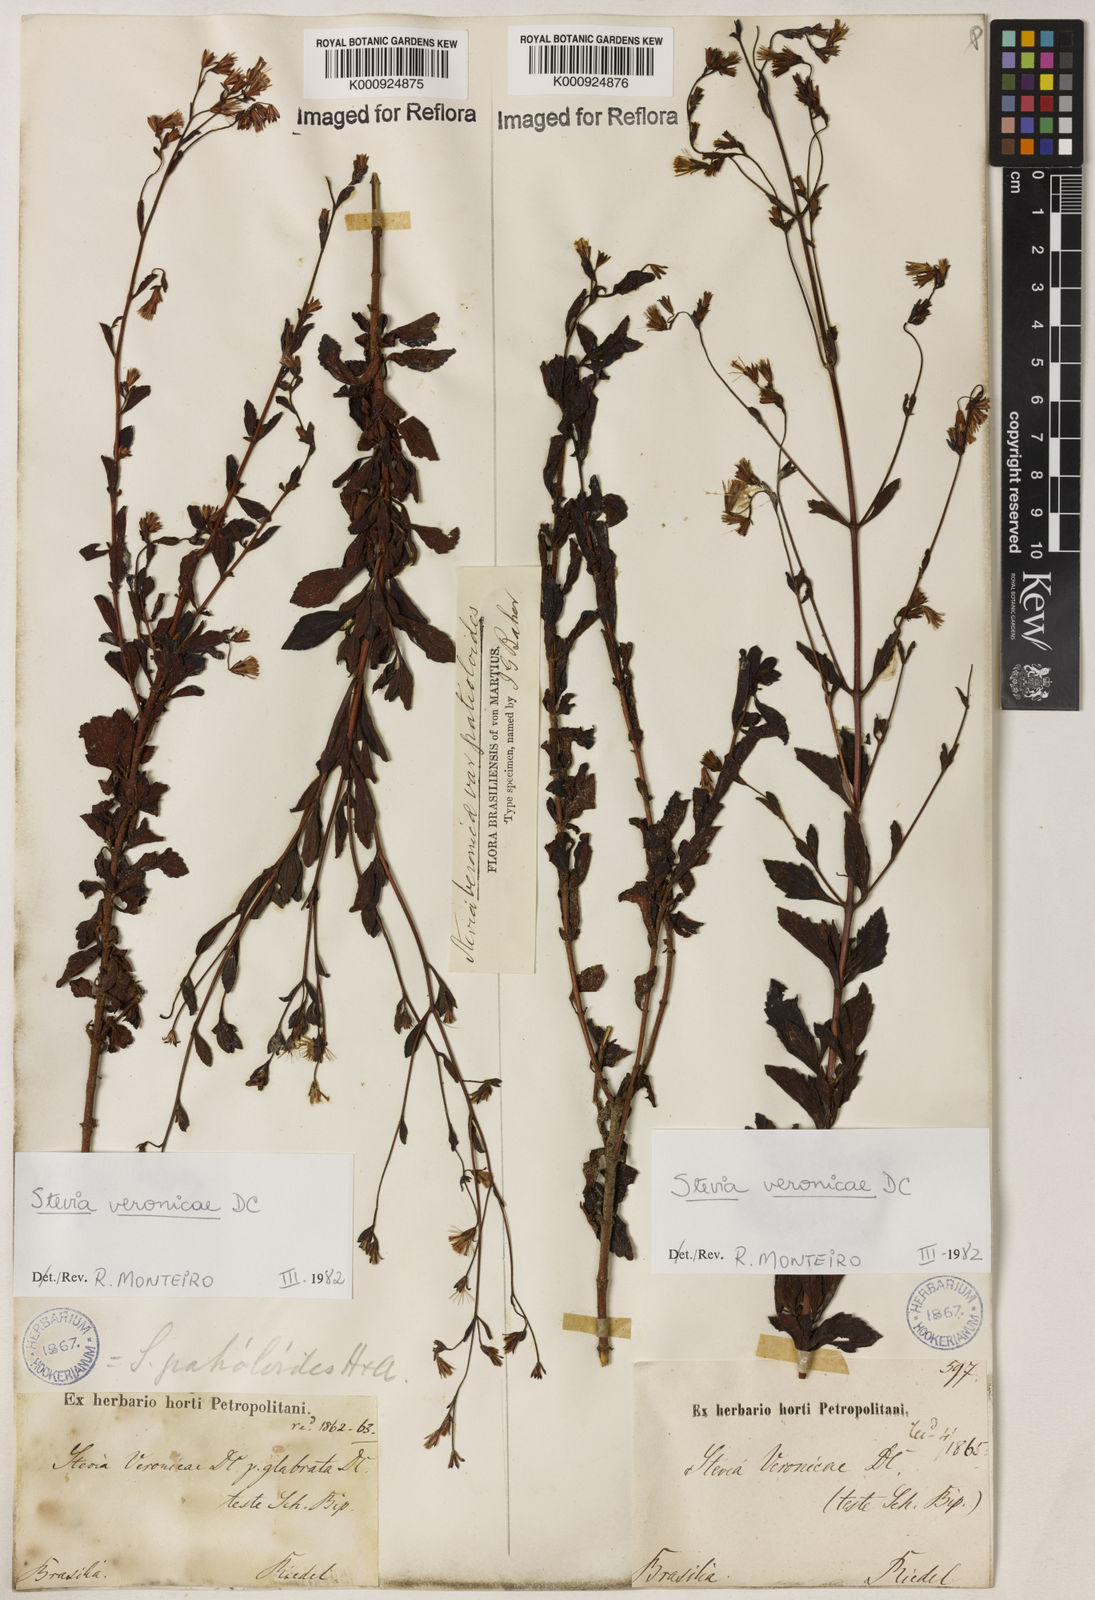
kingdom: Plantae
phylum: Tracheophyta
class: Magnoliopsida
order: Asterales
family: Asteraceae
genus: Stevia
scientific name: Stevia veronicae
